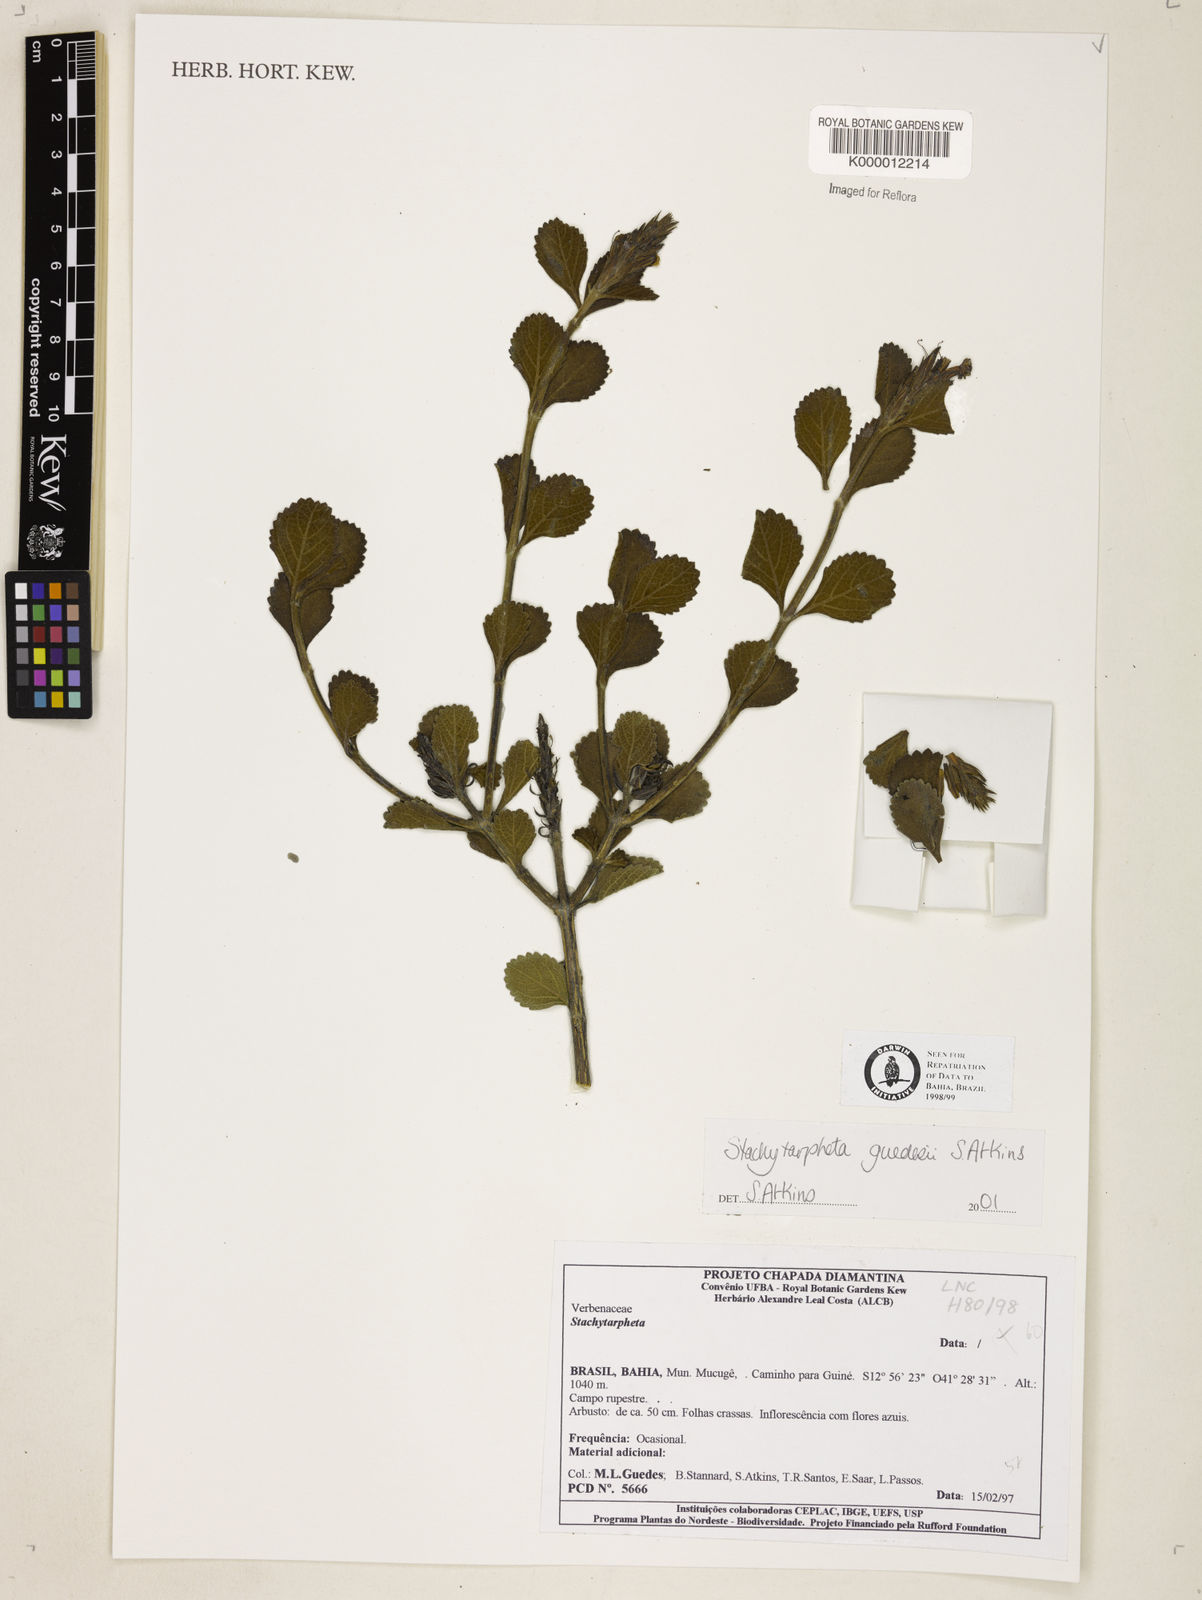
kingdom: Plantae
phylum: Tracheophyta
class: Magnoliopsida
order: Lamiales
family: Verbenaceae
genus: Stachytarpheta
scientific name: Stachytarpheta guedesii
